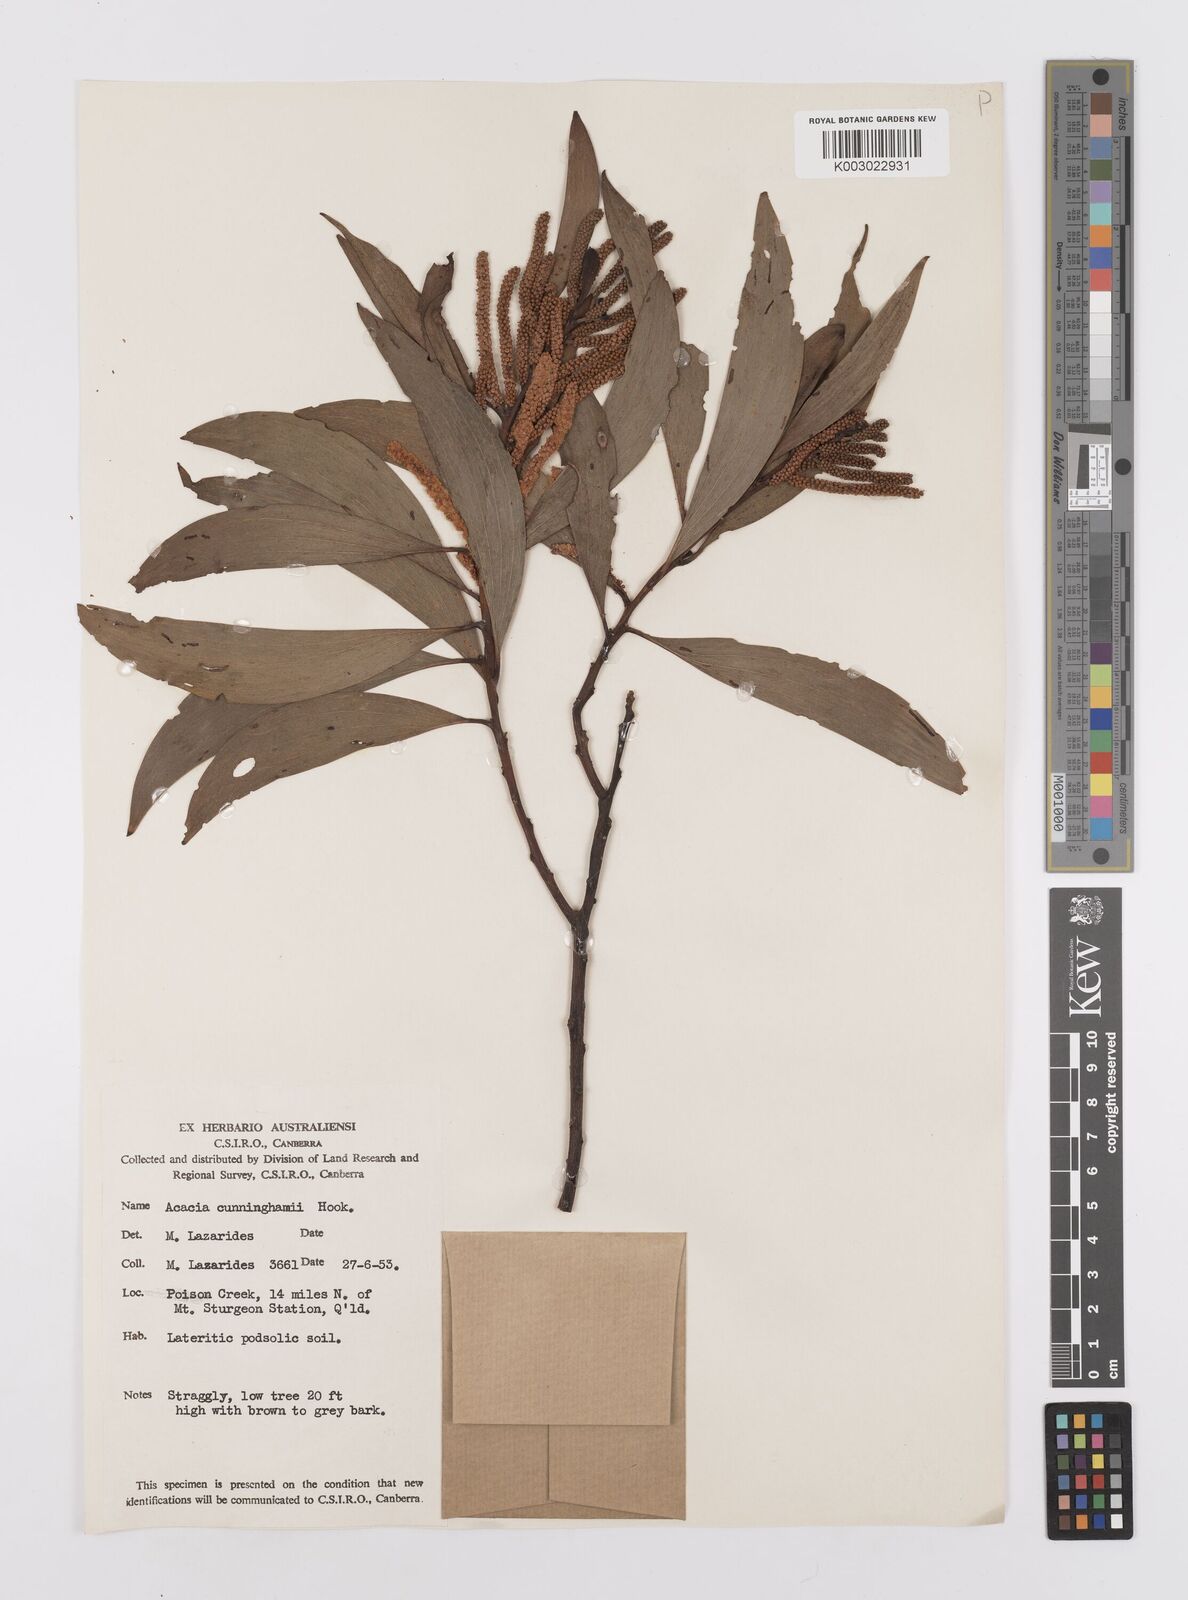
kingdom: Plantae
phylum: Tracheophyta
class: Magnoliopsida
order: Fabales
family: Fabaceae
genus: Acacia
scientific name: Acacia longispicata
